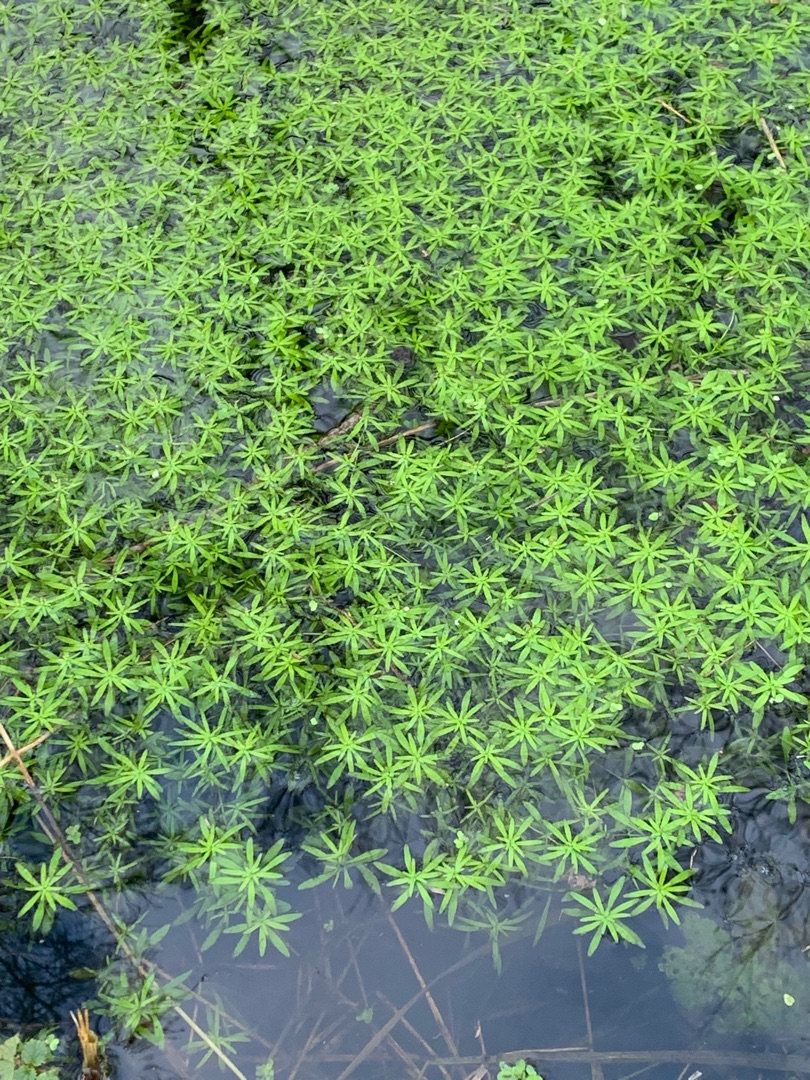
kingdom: Plantae
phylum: Tracheophyta
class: Magnoliopsida
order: Lamiales
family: Plantaginaceae
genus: Callitriche
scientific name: Callitriche
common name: Vandstjerneslægten
